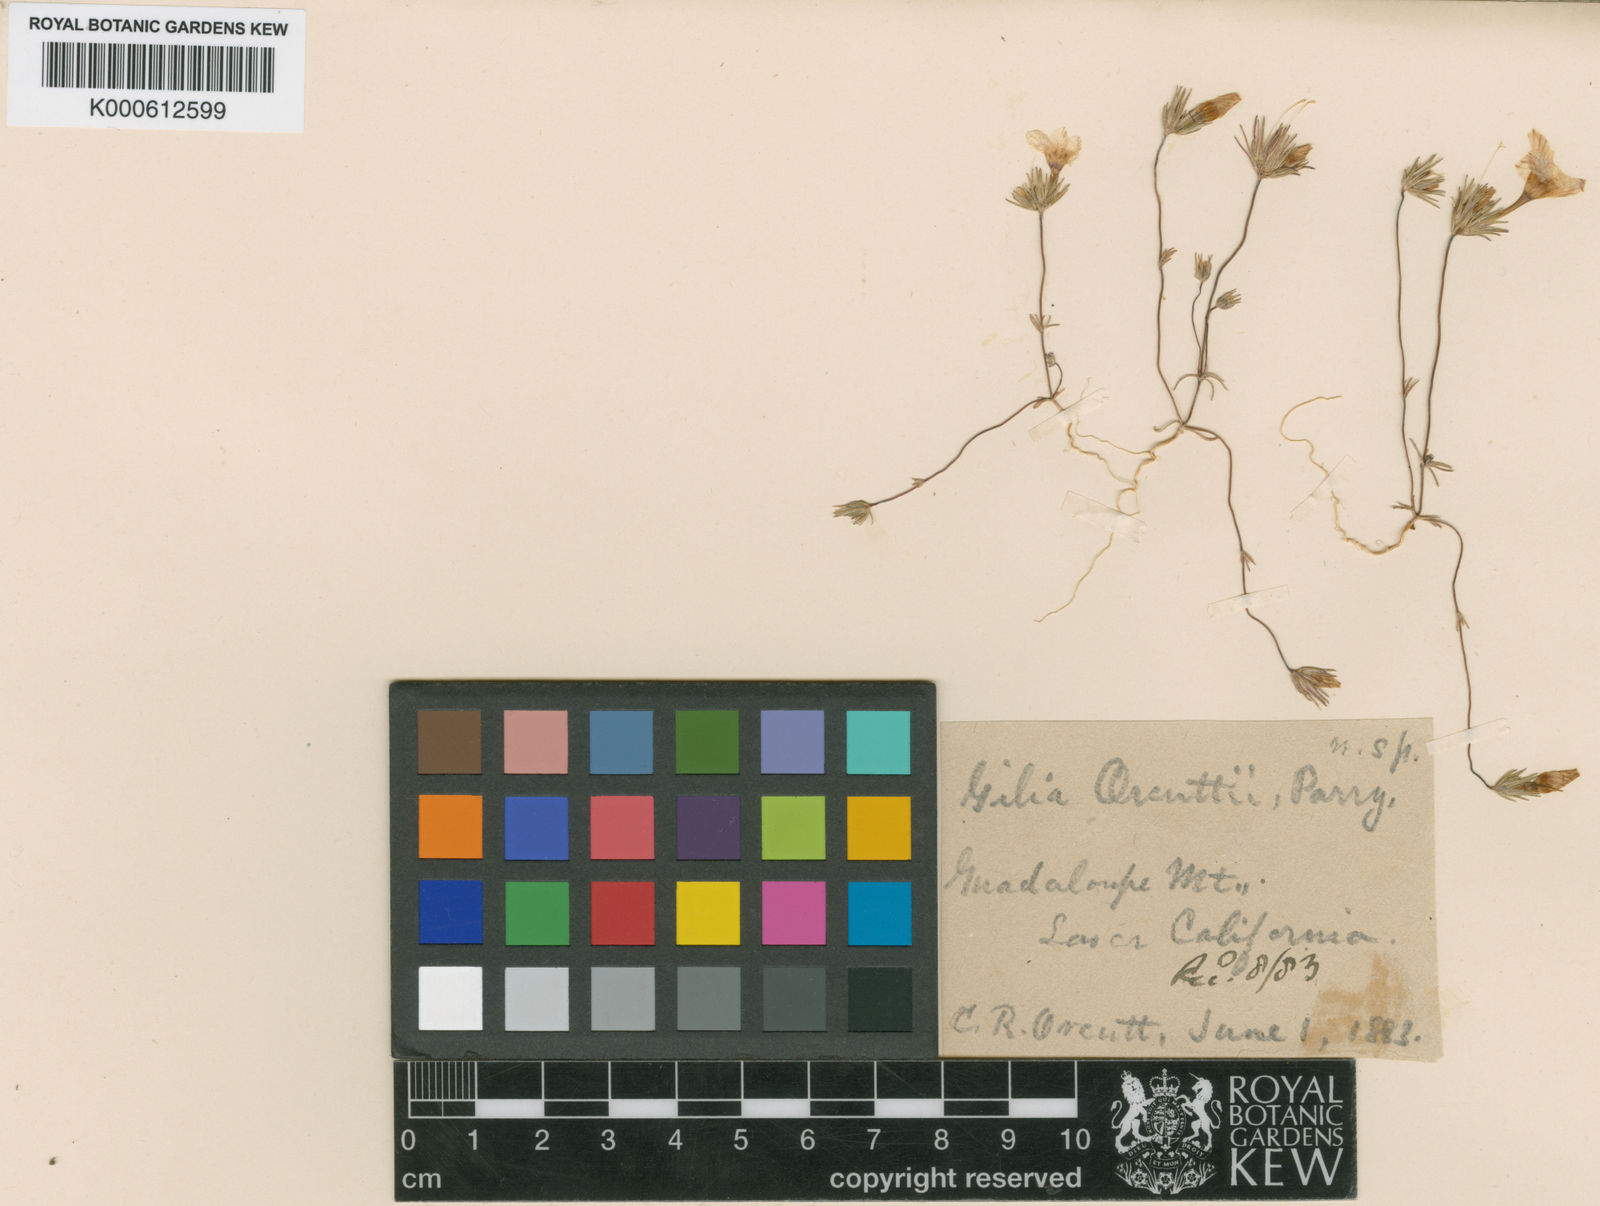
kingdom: Plantae
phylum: Tracheophyta
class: Magnoliopsida
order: Ericales
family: Polemoniaceae
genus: Linanthus
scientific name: Linanthus orcuttii
